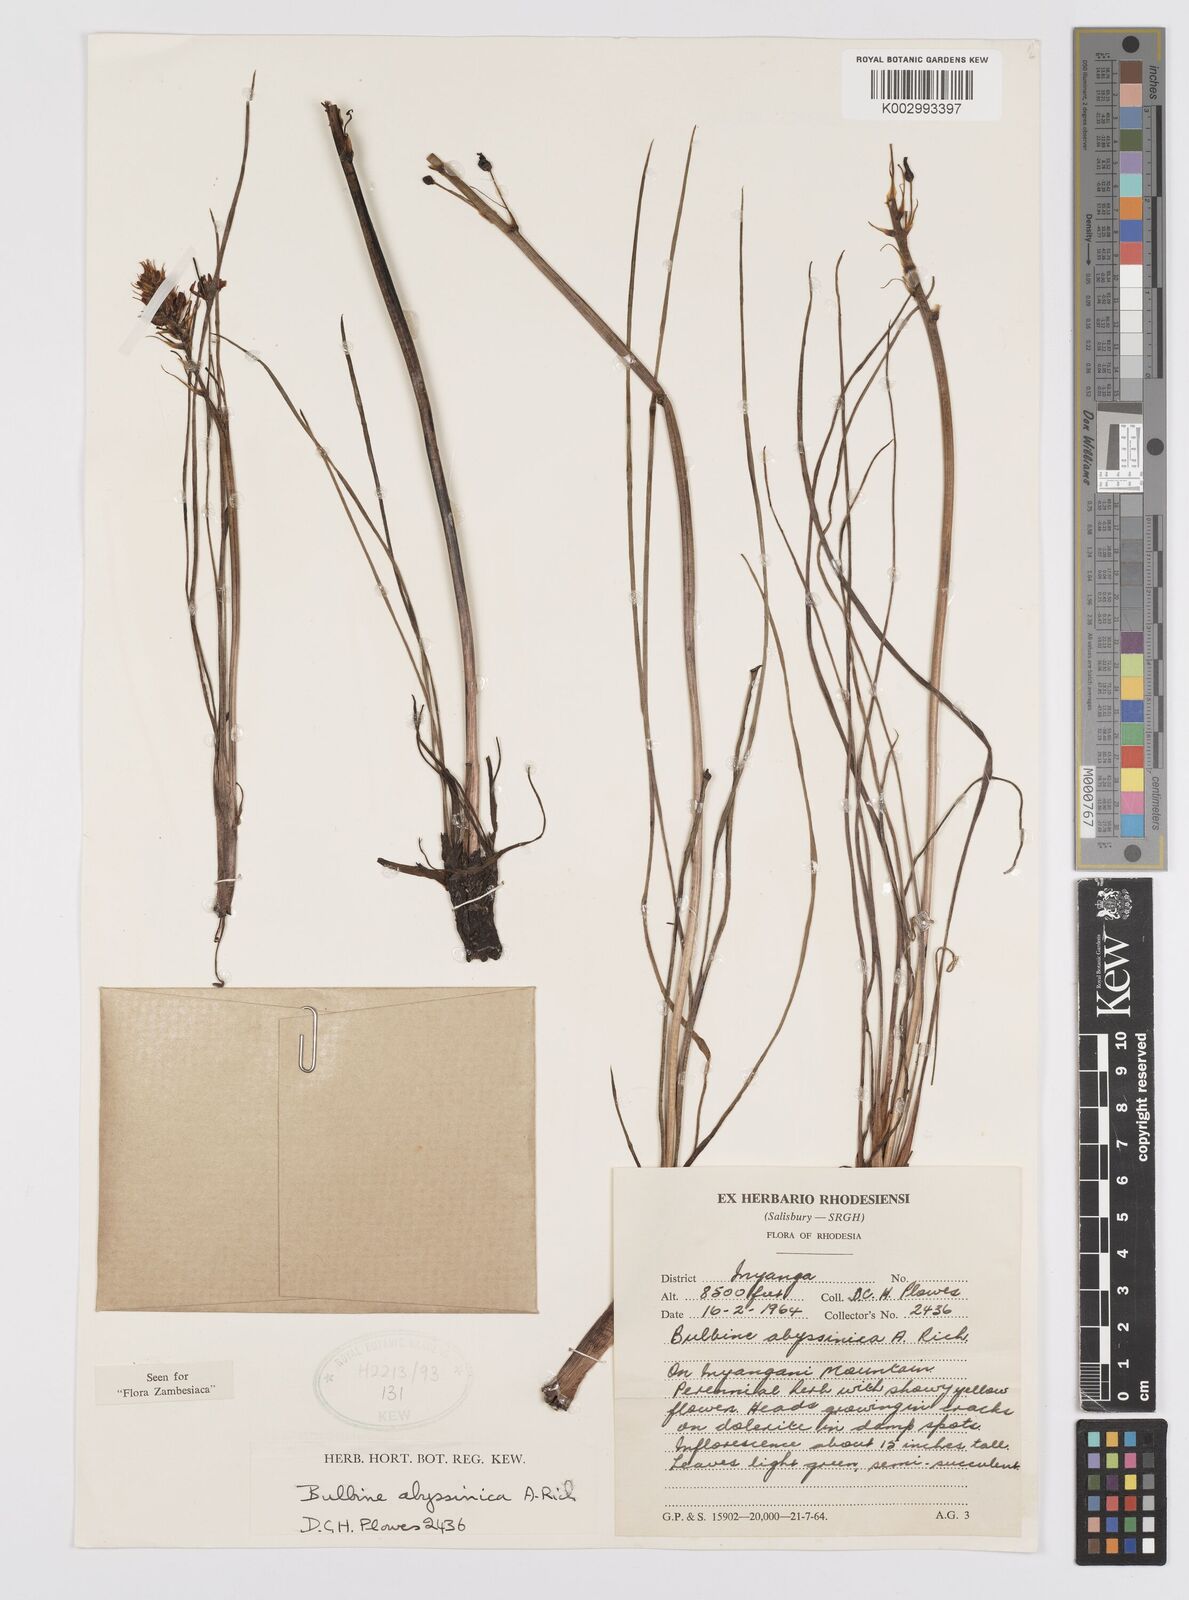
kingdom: Plantae
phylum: Tracheophyta
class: Liliopsida
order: Asparagales
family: Asphodelaceae
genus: Bulbine
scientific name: Bulbine abyssinica
